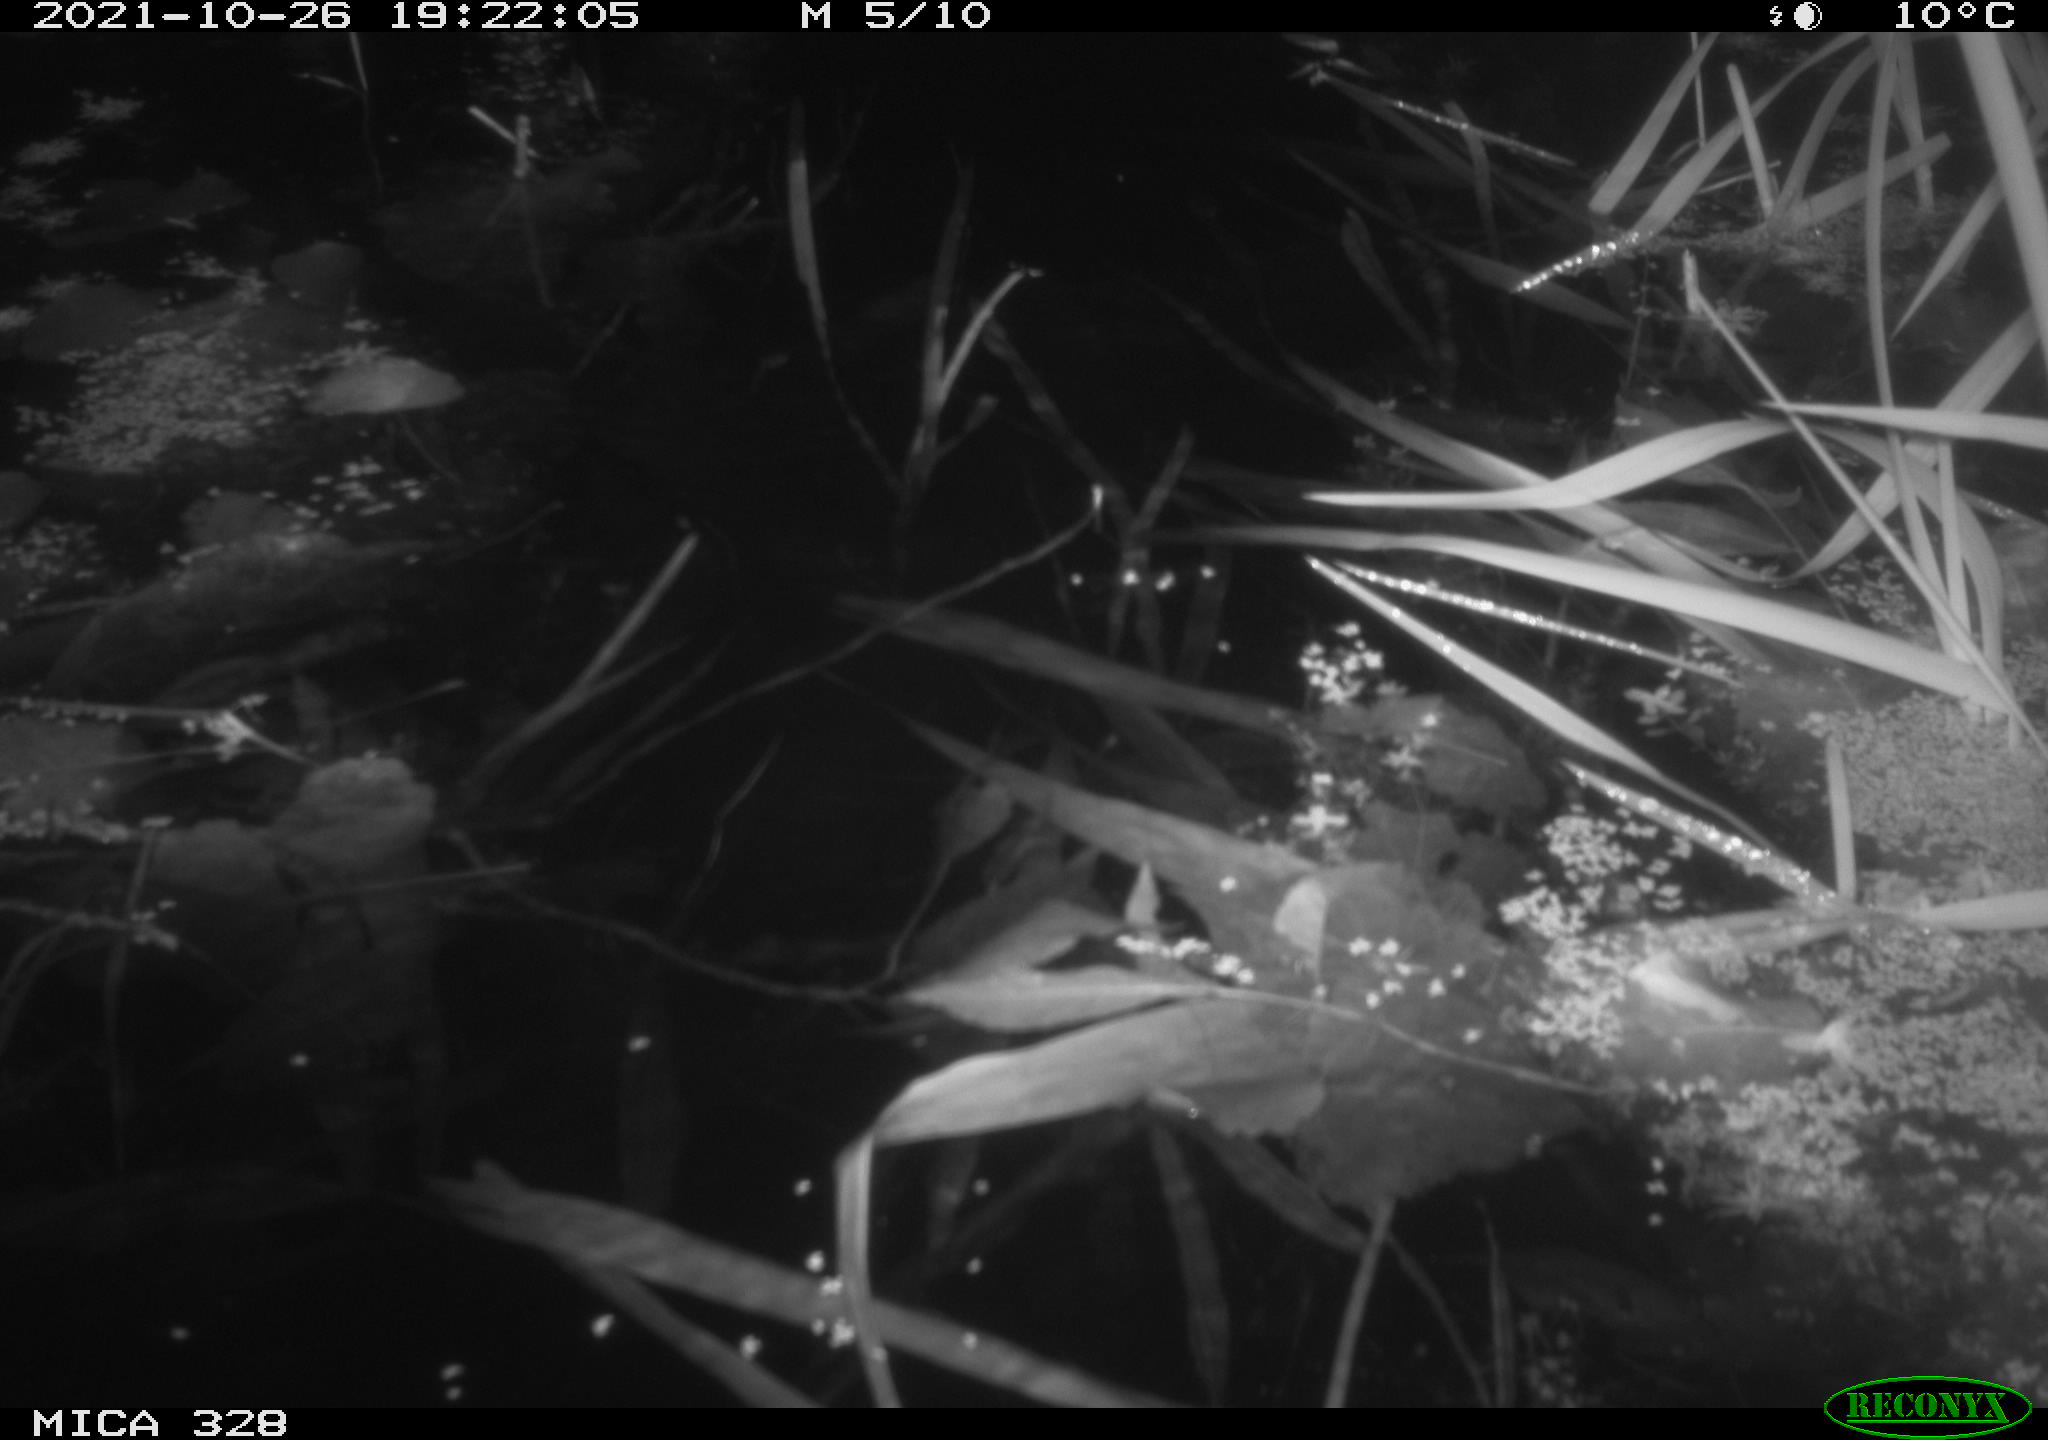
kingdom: Animalia
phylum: Chordata
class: Mammalia
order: Rodentia
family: Cricetidae
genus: Ondatra
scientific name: Ondatra zibethicus
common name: Muskrat
